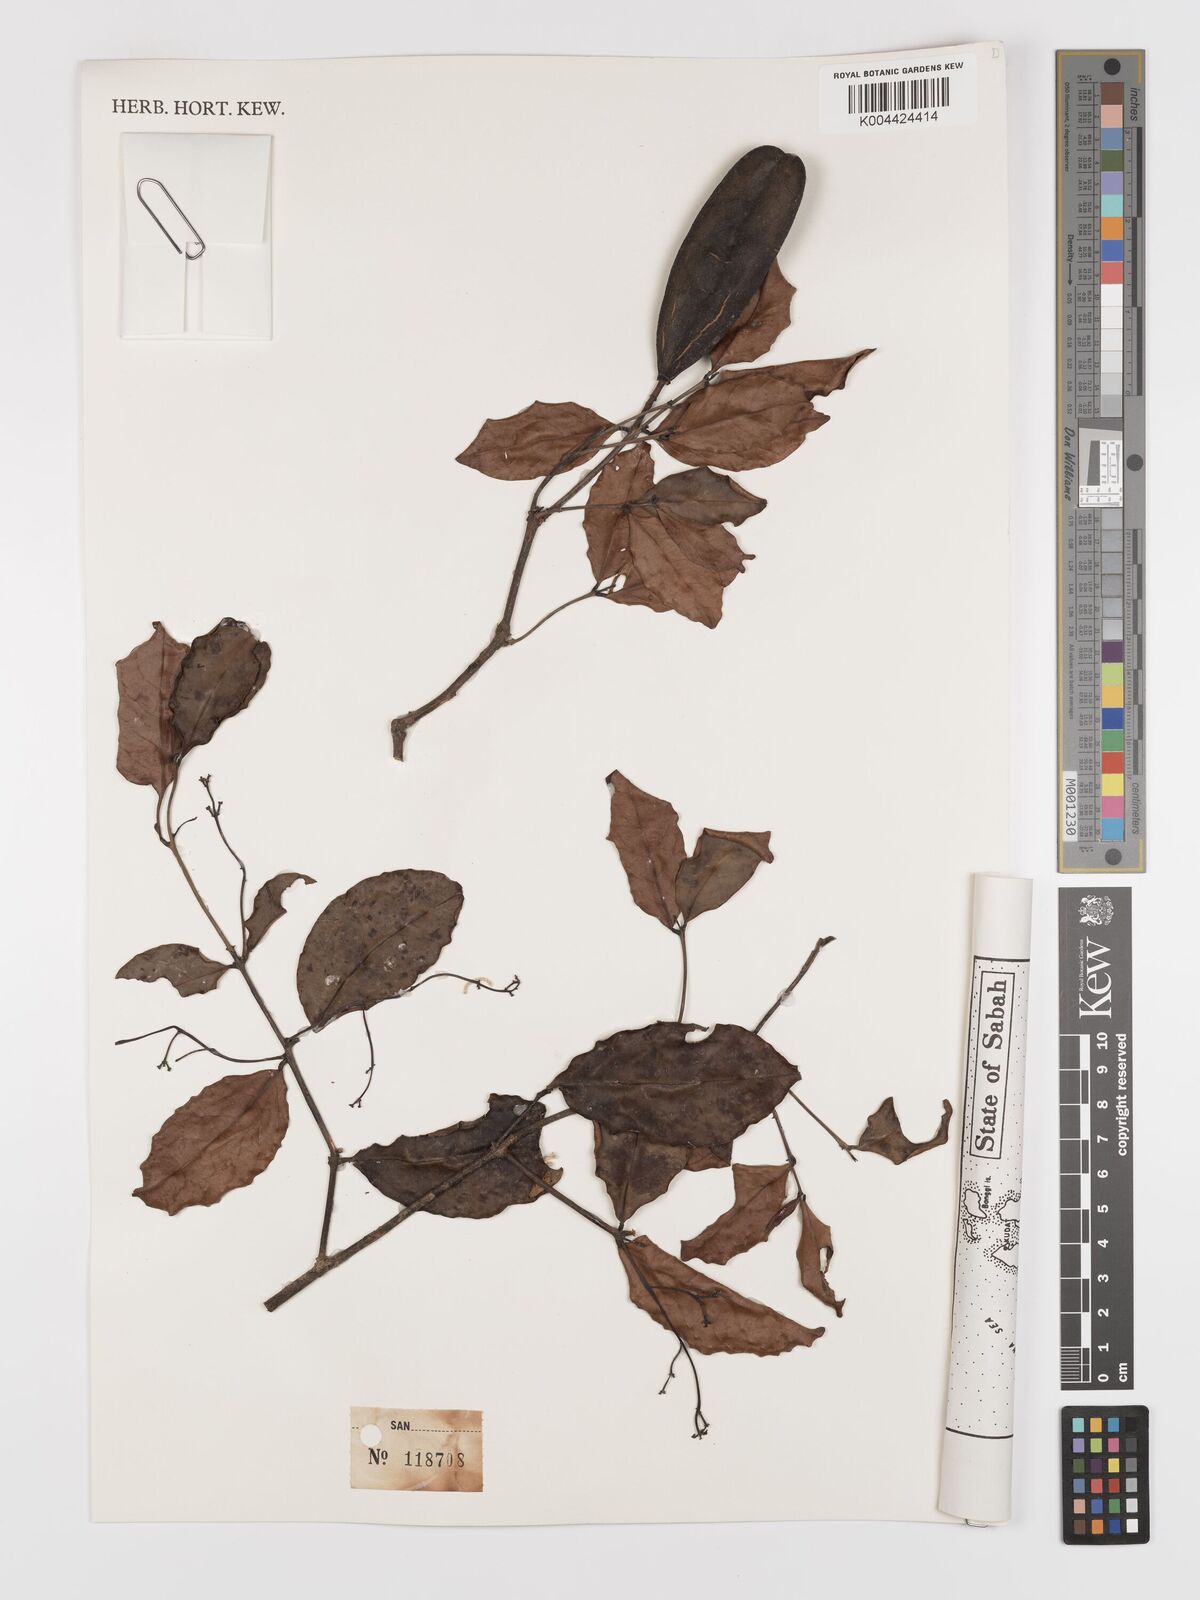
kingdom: Plantae
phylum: Tracheophyta
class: Magnoliopsida
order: Celastrales
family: Celastraceae
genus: Lophopetalum
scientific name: Lophopetalum
